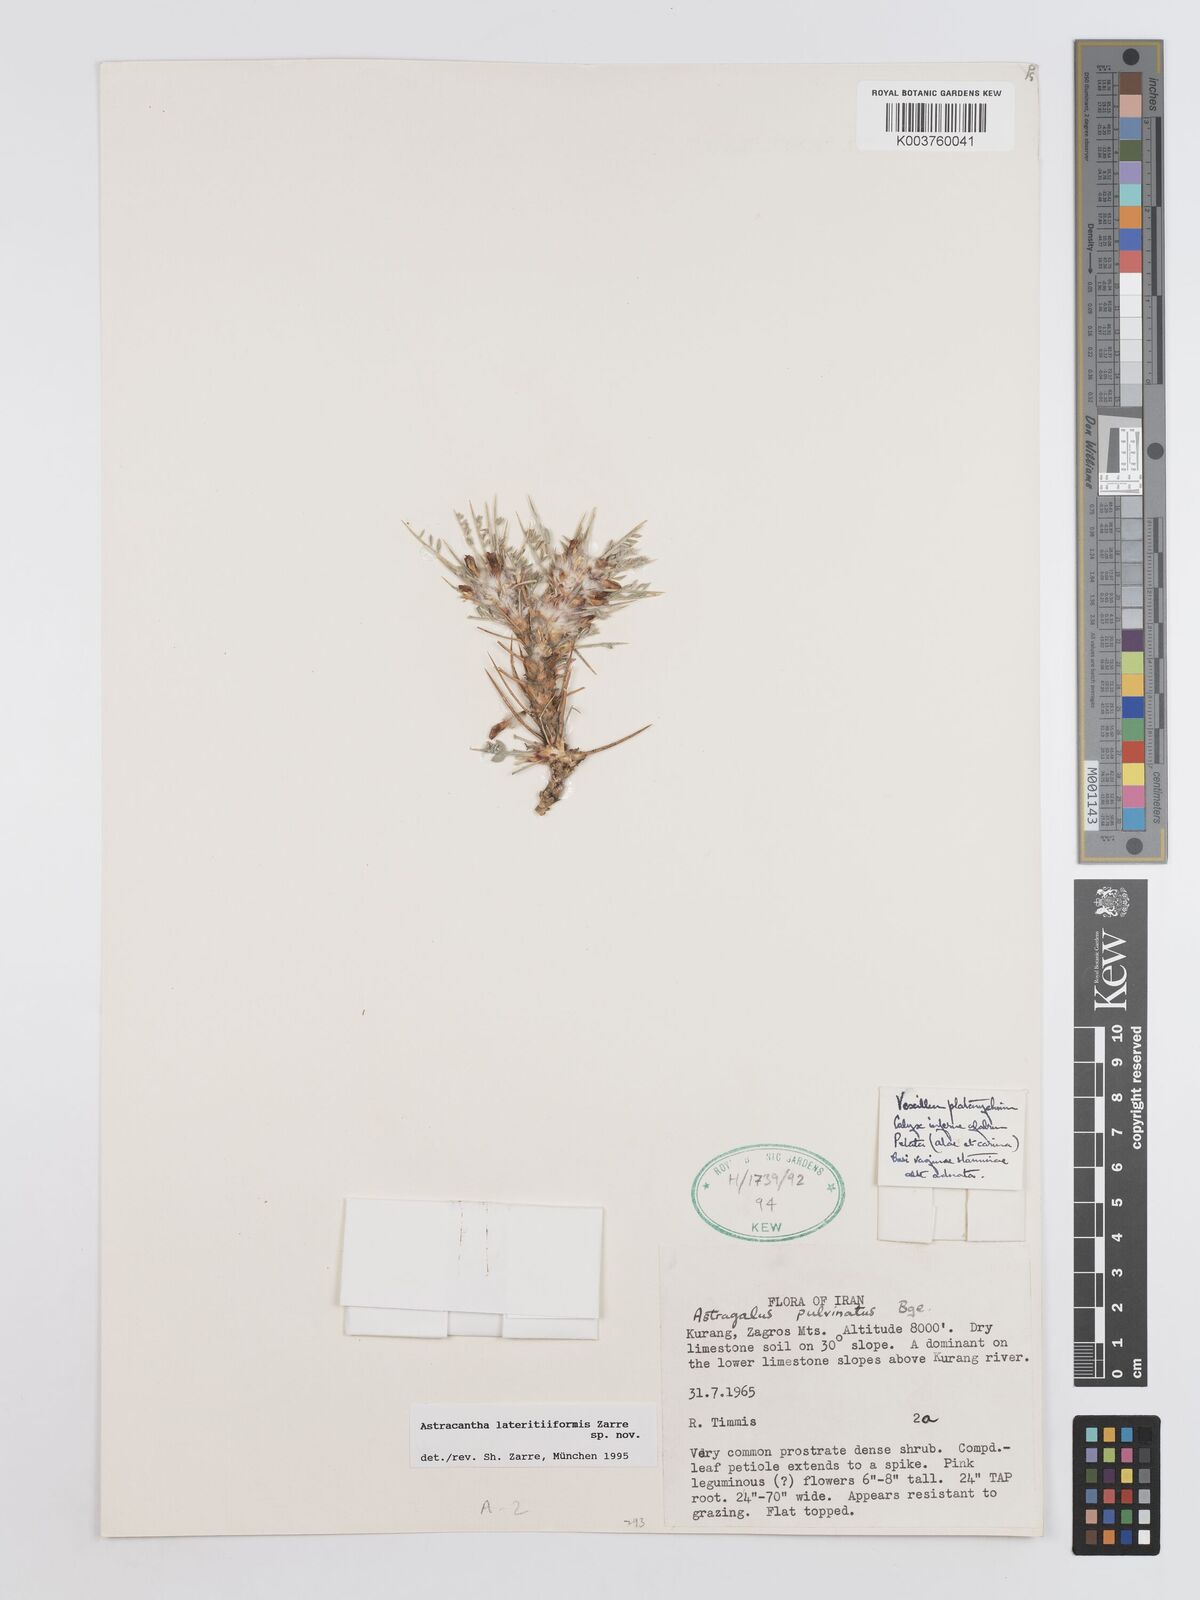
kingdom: Plantae
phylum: Tracheophyta
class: Magnoliopsida
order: Fabales
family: Fabaceae
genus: Astragalus
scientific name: Astragalus lateritiiformis
